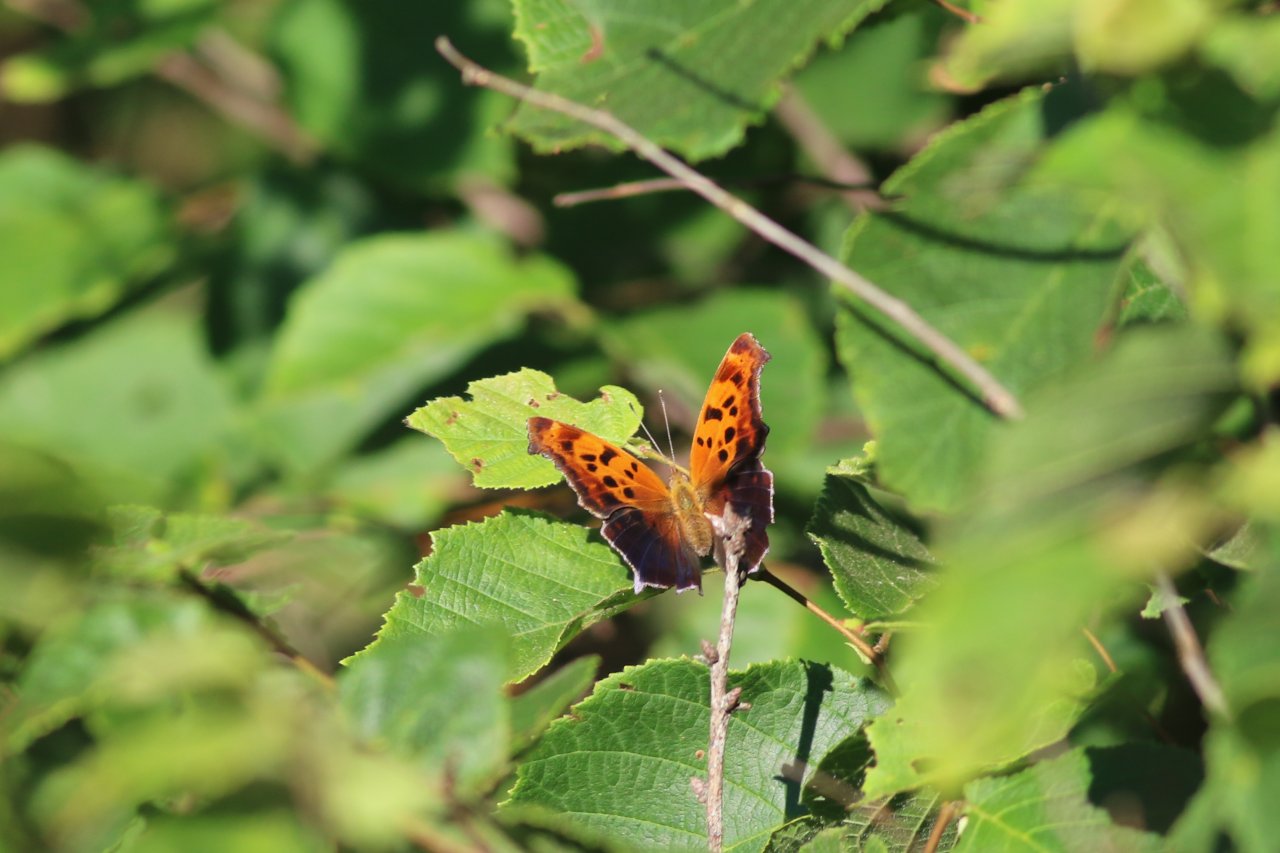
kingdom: Animalia
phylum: Arthropoda
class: Insecta
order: Lepidoptera
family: Nymphalidae
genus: Polygonia
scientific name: Polygonia interrogationis
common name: Question Mark
